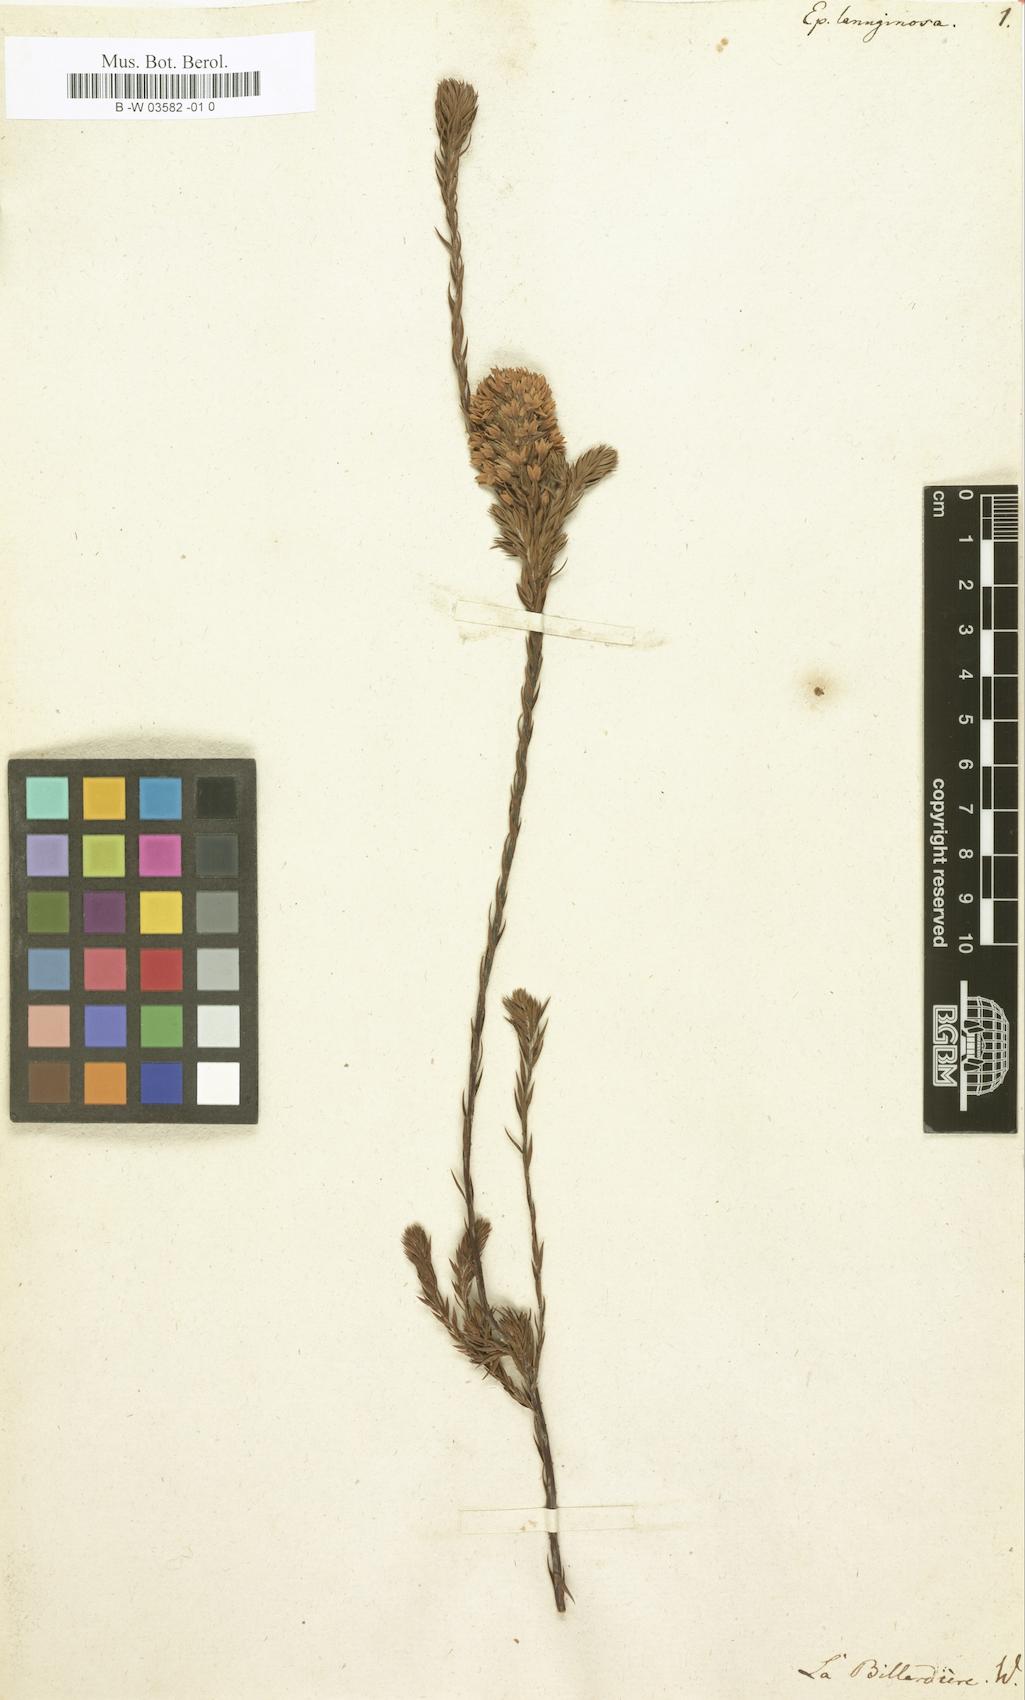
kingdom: Plantae
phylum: Tracheophyta
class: Magnoliopsida
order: Ericales
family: Ericaceae
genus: Epacris
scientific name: Epacris lanuginosa
